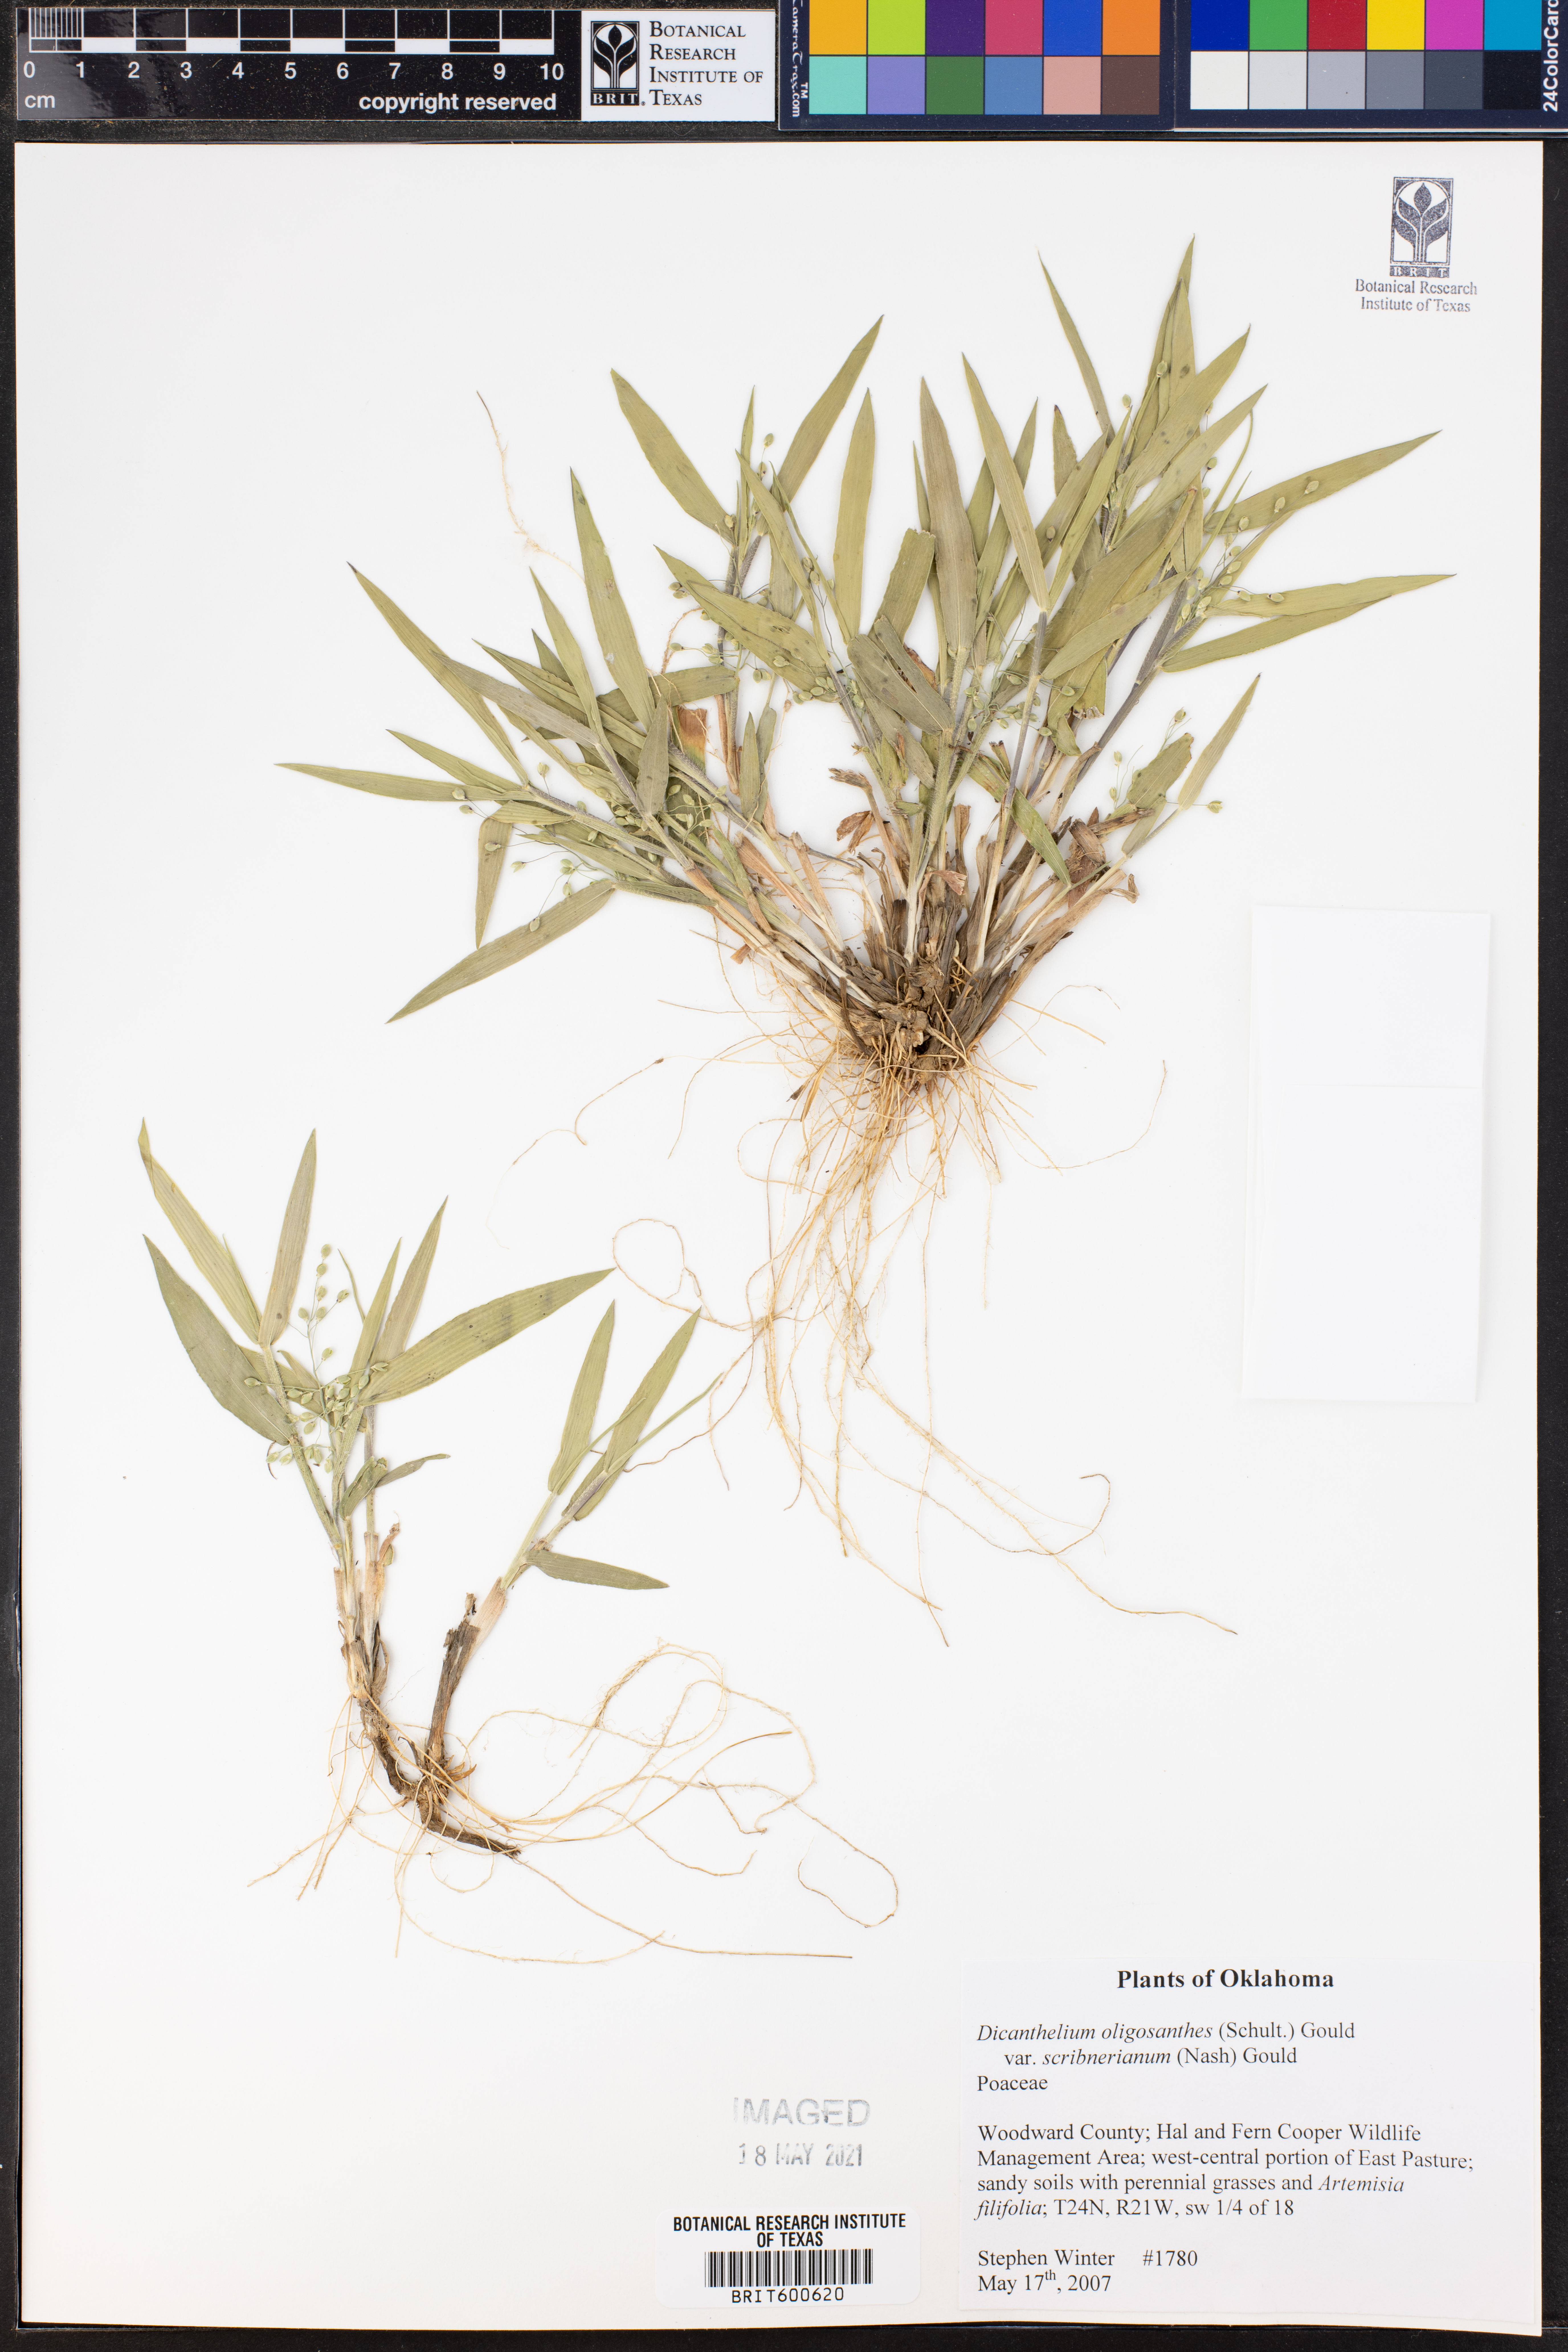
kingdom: Plantae
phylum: Tracheophyta
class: Liliopsida
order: Poales
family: Poaceae
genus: Dichanthelium
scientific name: Dichanthelium scribnerianum
